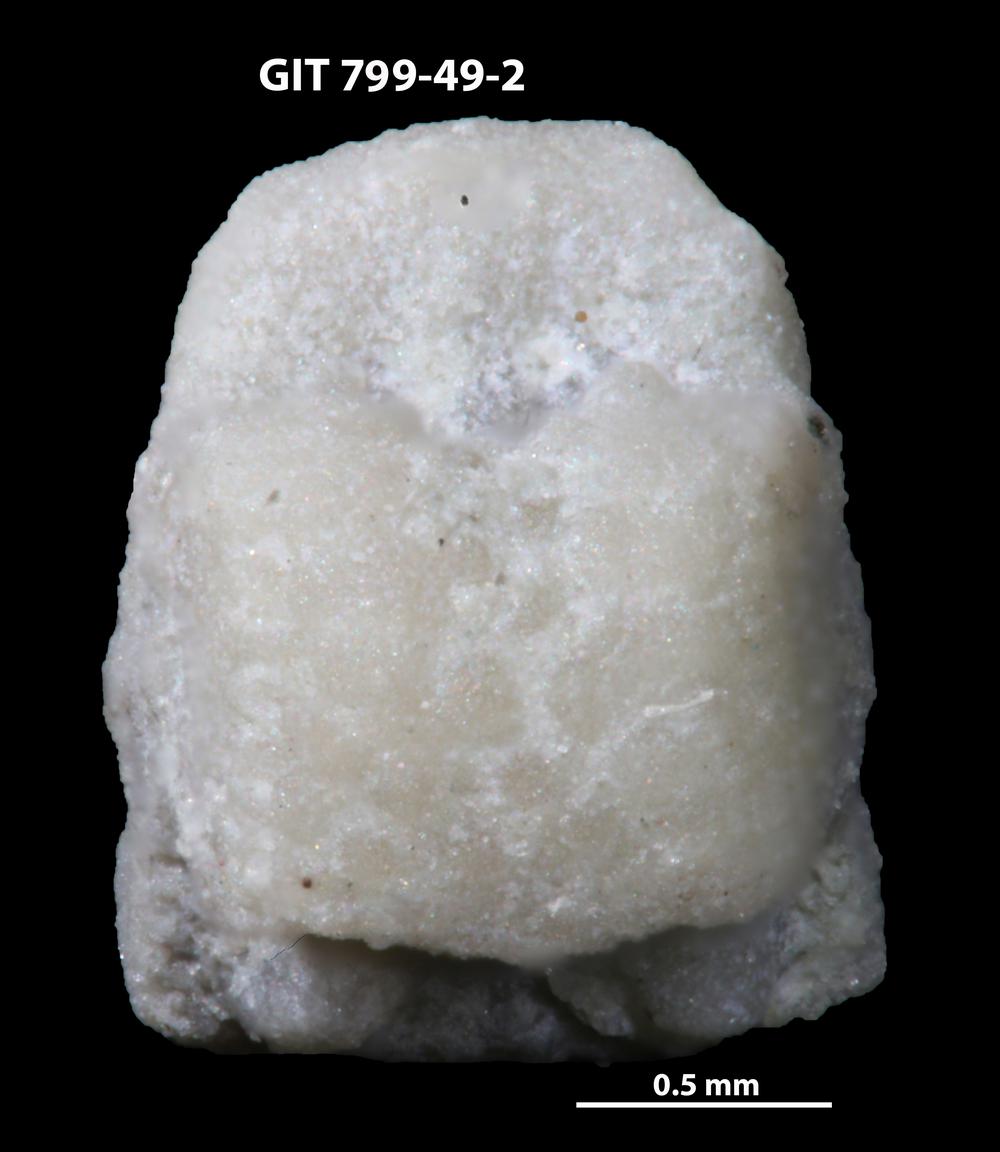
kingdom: Animalia
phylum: Echinodermata
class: Crinoidea
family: Cyclocystoididae
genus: Polytryphocycloides
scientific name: Polytryphocycloides Cyclocystoides lindstroemi
